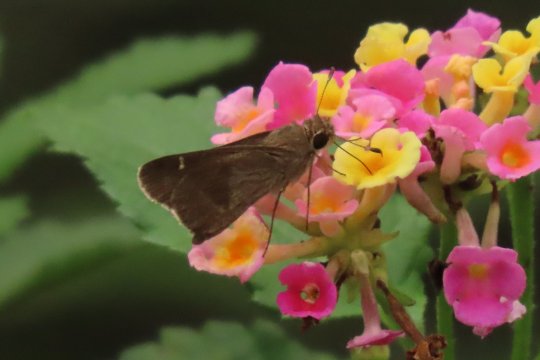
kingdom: Animalia
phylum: Arthropoda
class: Insecta
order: Lepidoptera
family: Hesperiidae
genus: Lerodea
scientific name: Lerodea arabus
